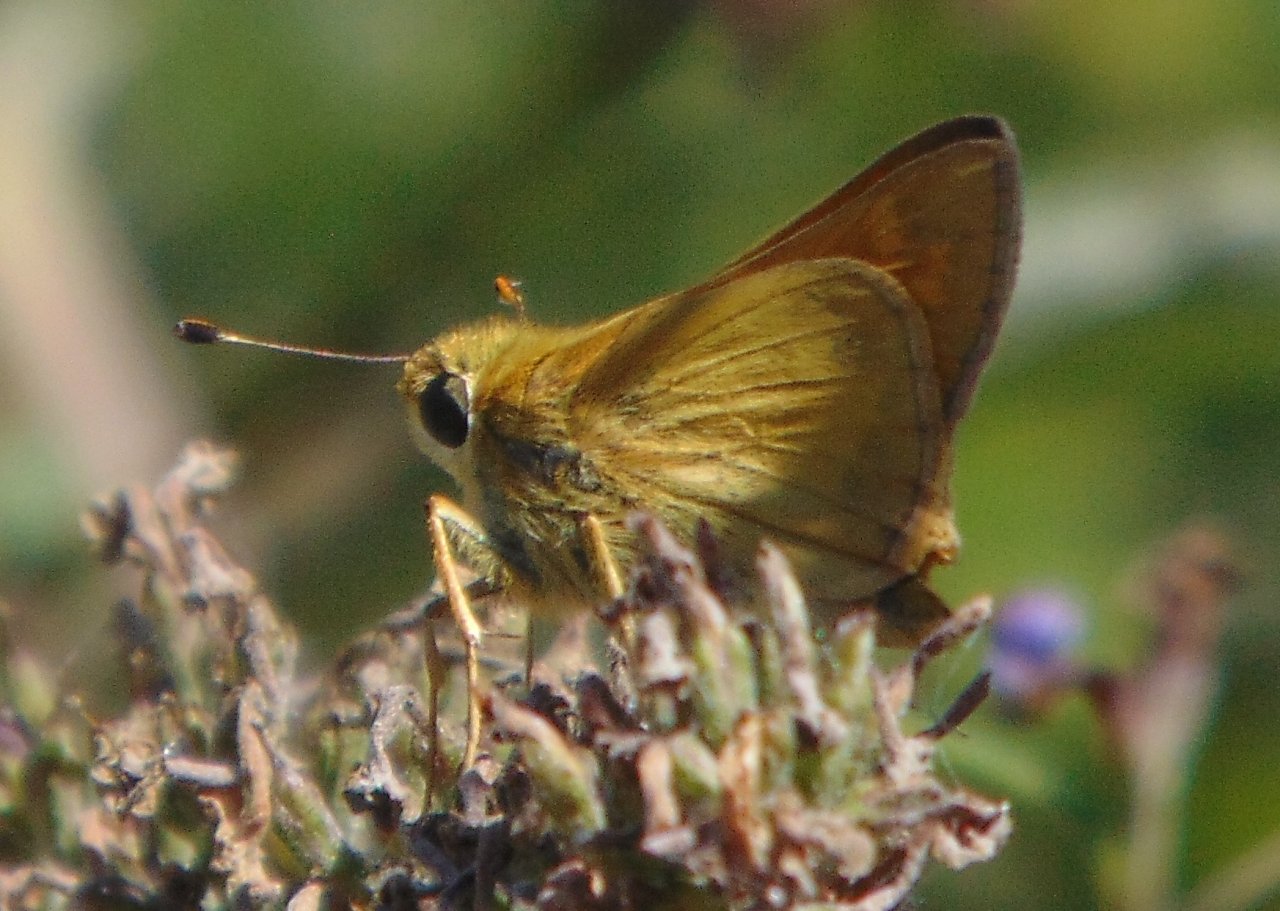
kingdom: Animalia
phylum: Arthropoda
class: Insecta
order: Lepidoptera
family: Hesperiidae
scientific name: Hesperiidae
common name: Skippers
